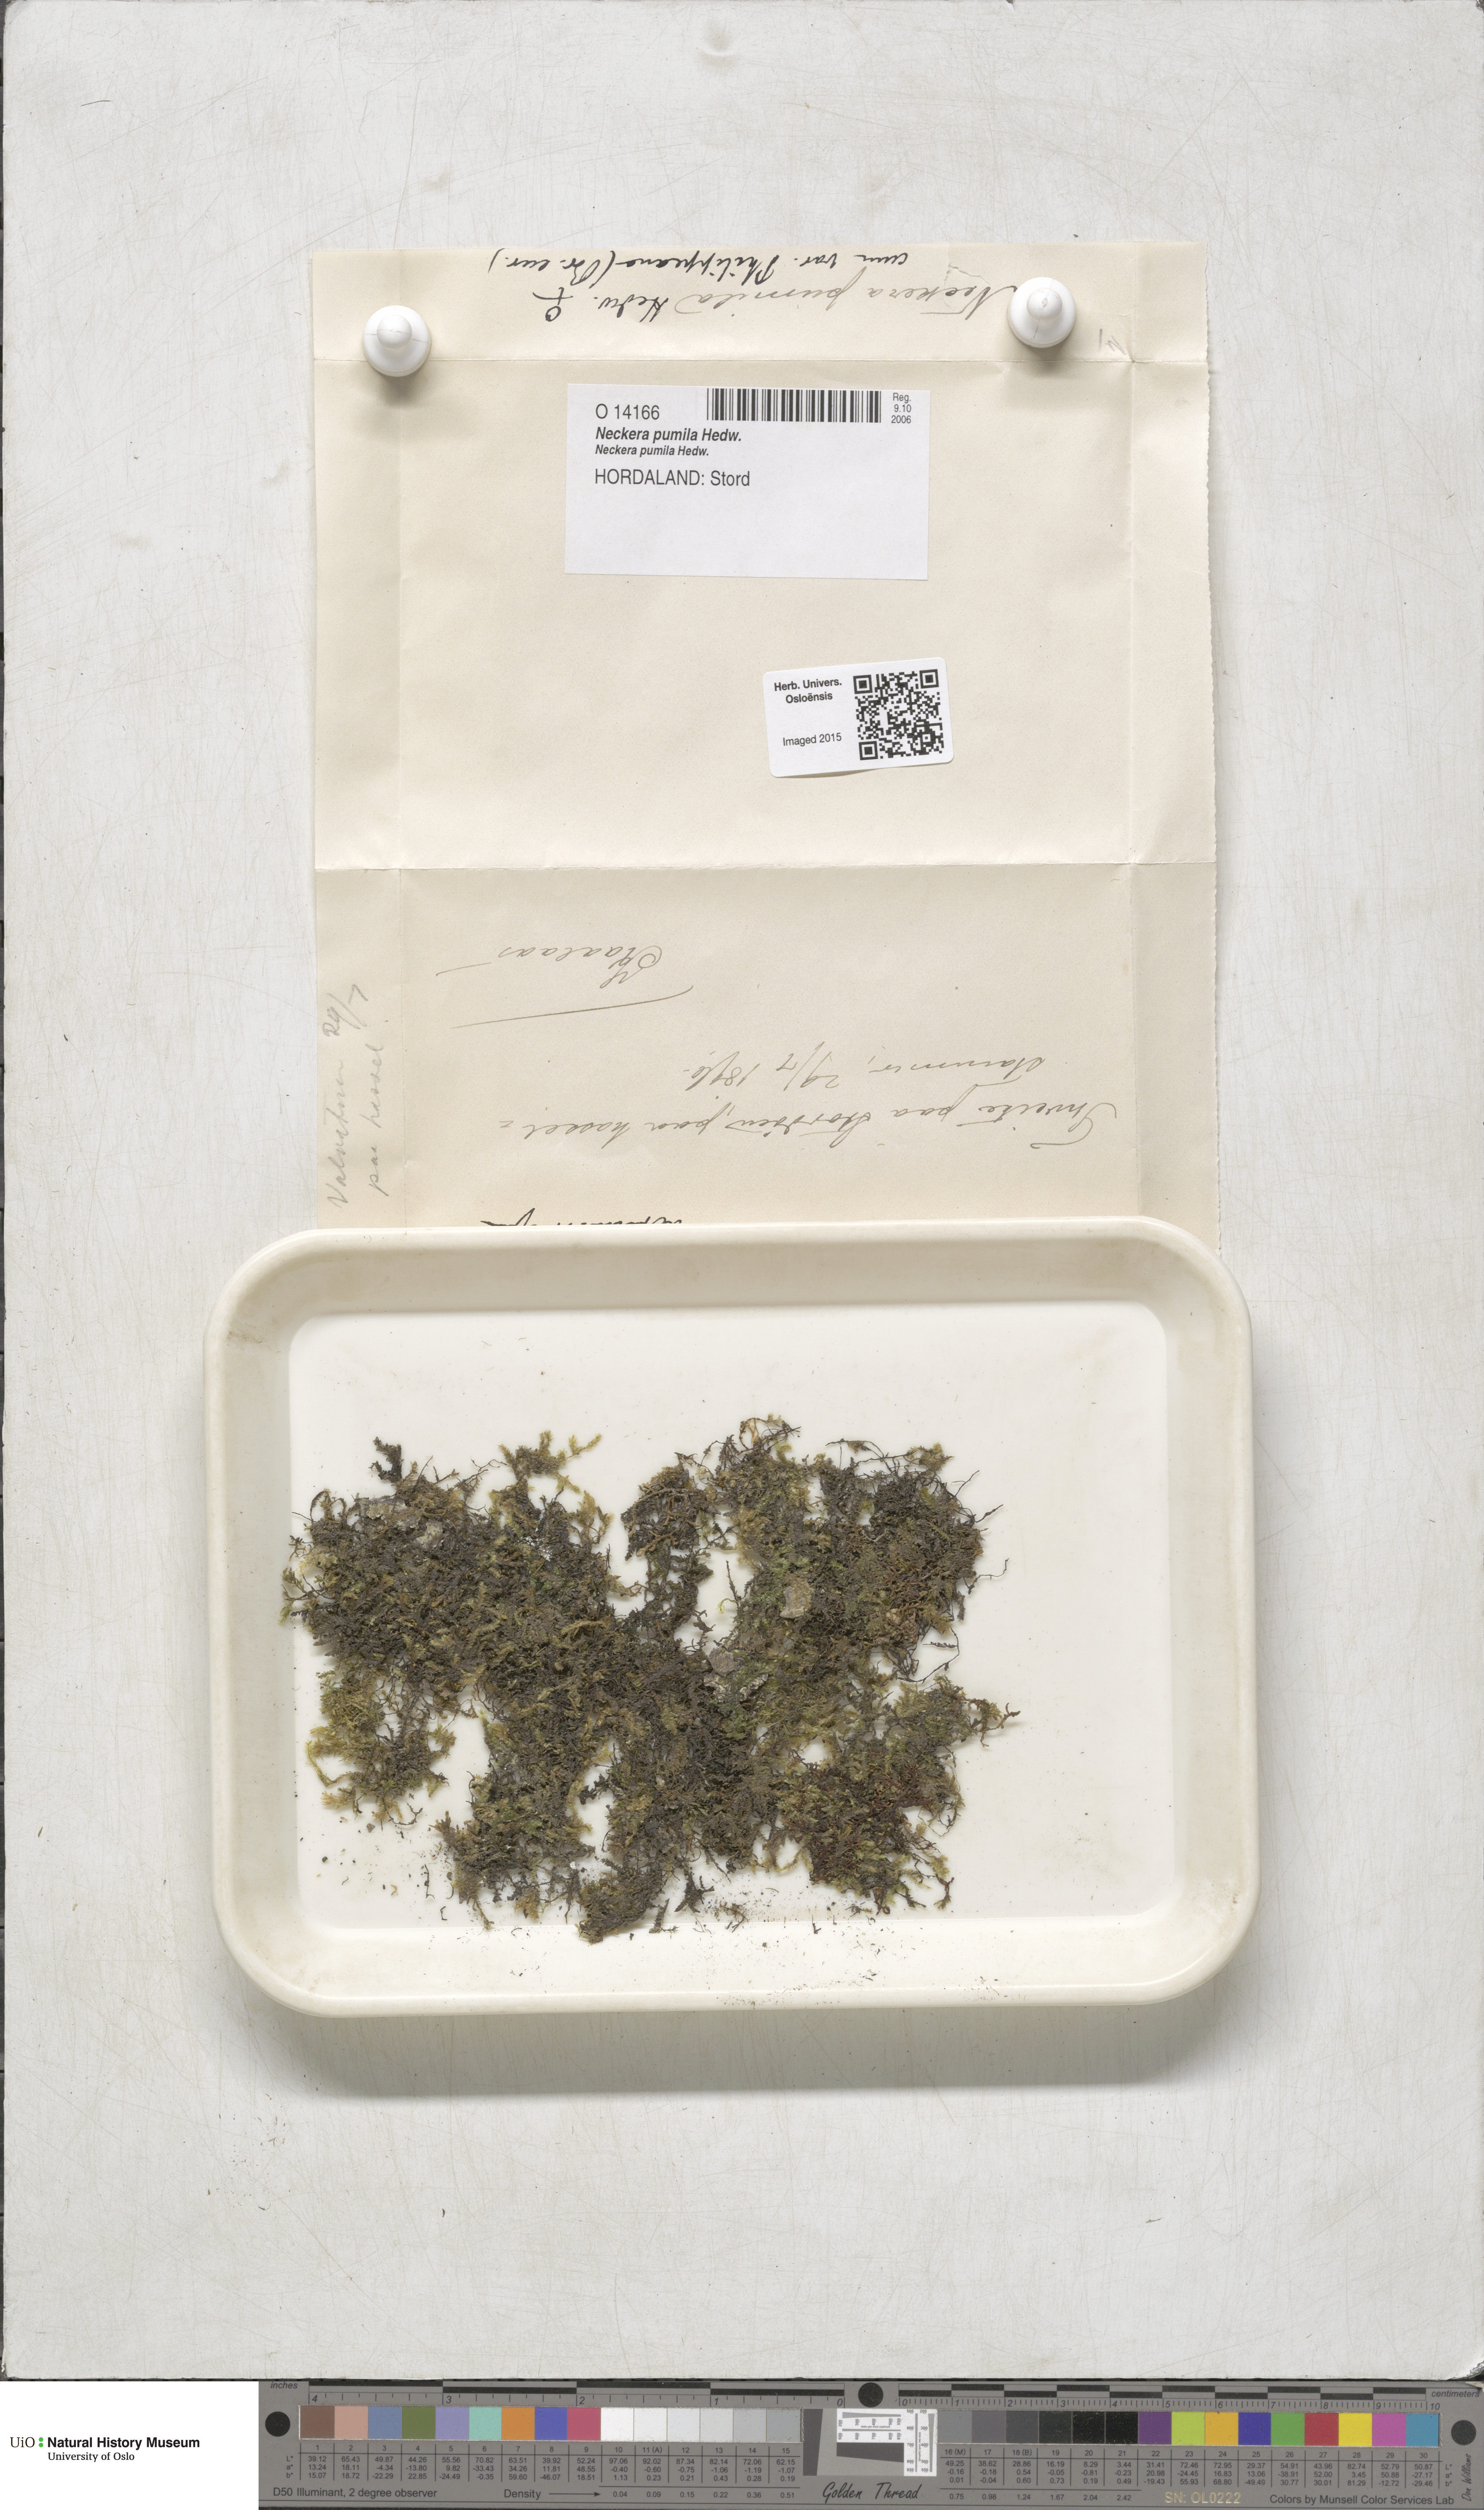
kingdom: Plantae
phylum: Bryophyta
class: Bryopsida
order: Hypnales
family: Neckeraceae
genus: Neckera
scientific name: Neckera pumila
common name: Dwarf neckera
